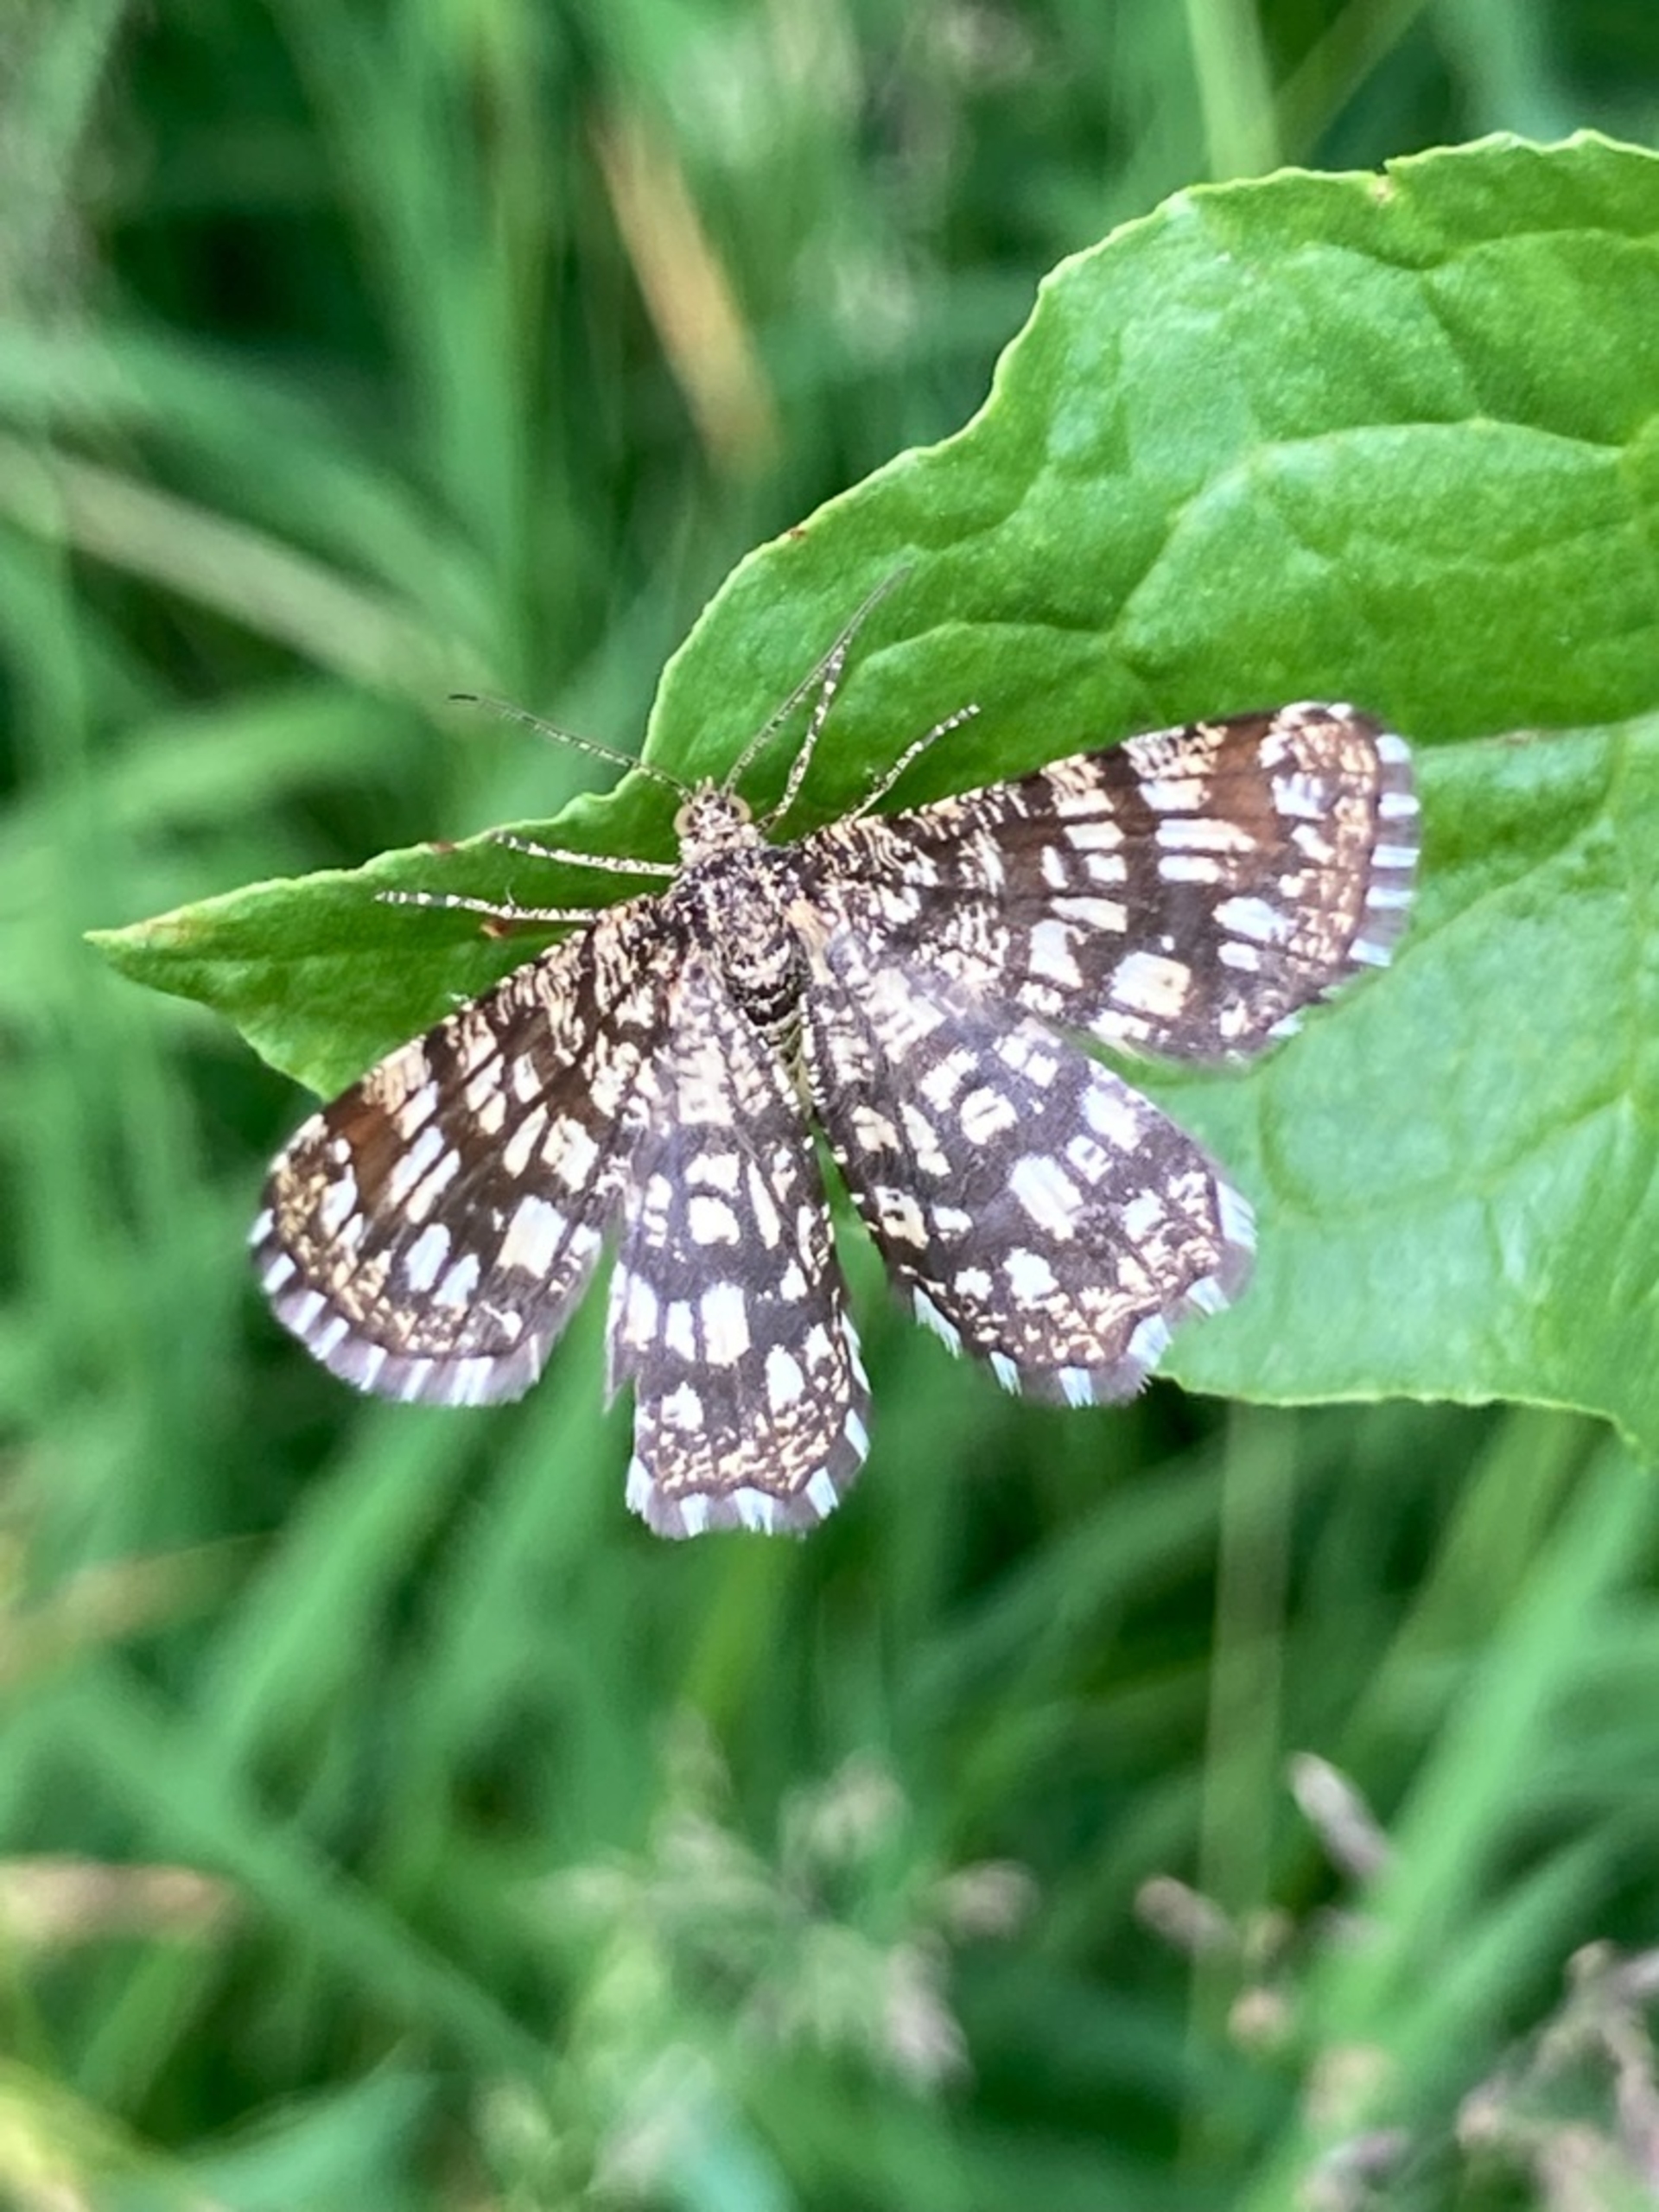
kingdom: Animalia
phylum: Arthropoda
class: Insecta
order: Lepidoptera
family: Geometridae
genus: Chiasmia
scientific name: Chiasmia clathrata
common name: Kløvermåler
